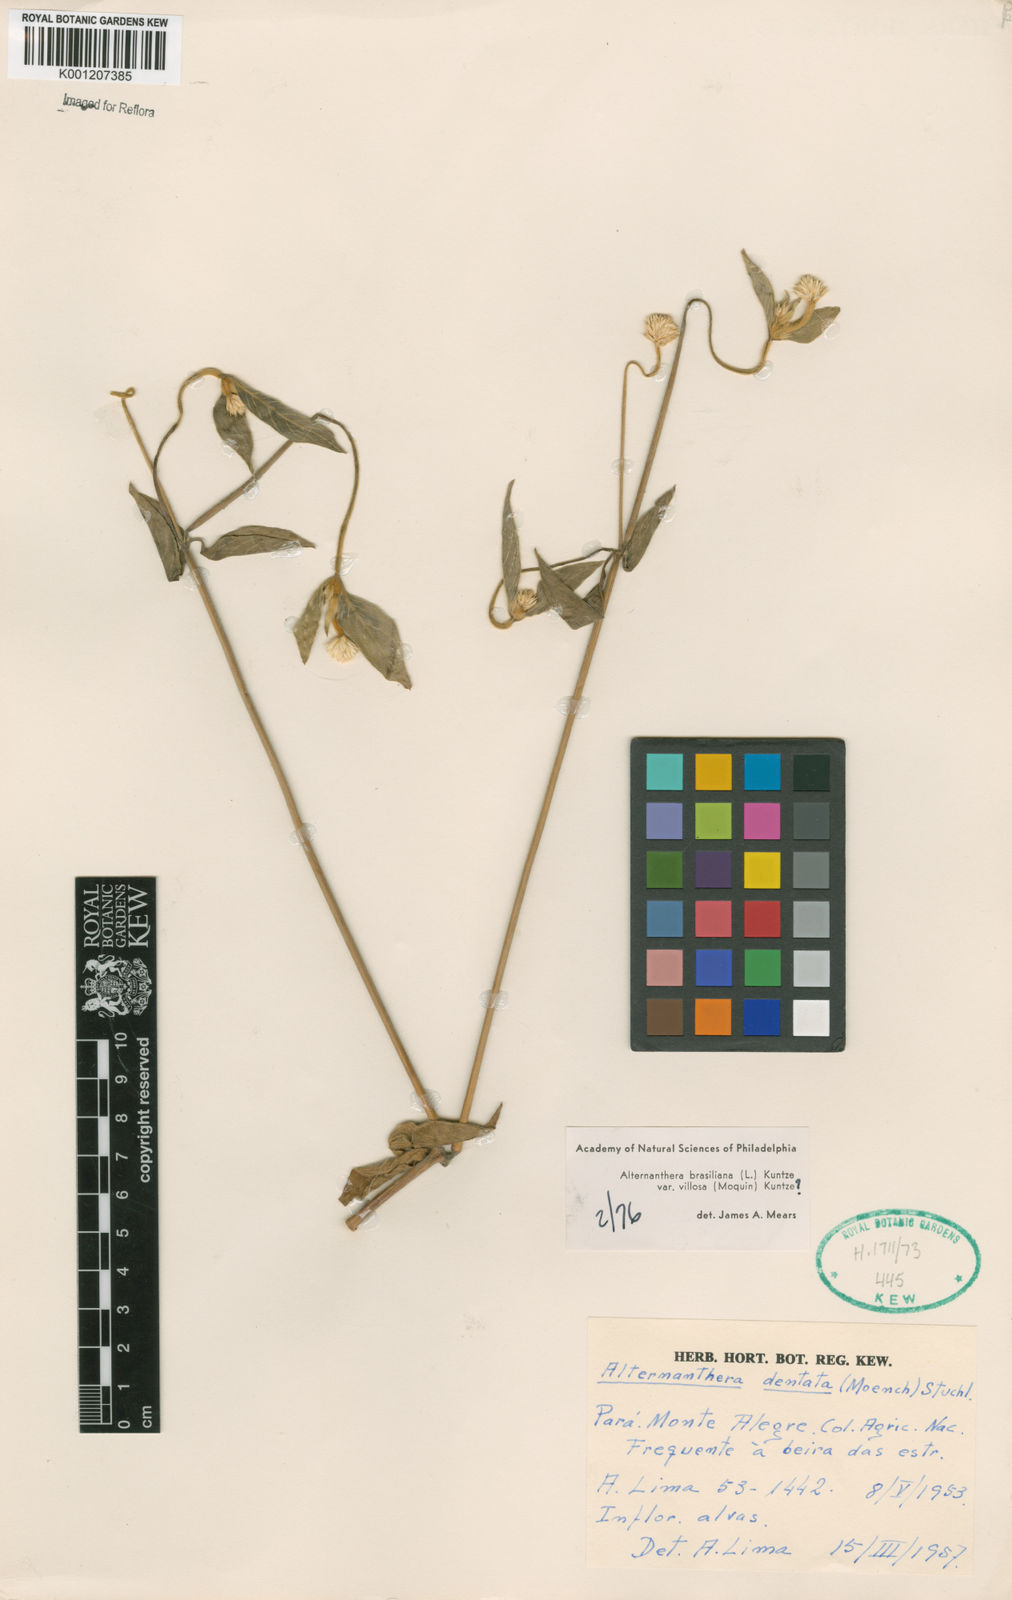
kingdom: Plantae
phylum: Tracheophyta
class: Magnoliopsida
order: Caryophyllales
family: Amaranthaceae
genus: Alternanthera
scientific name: Alternanthera ramosissima
